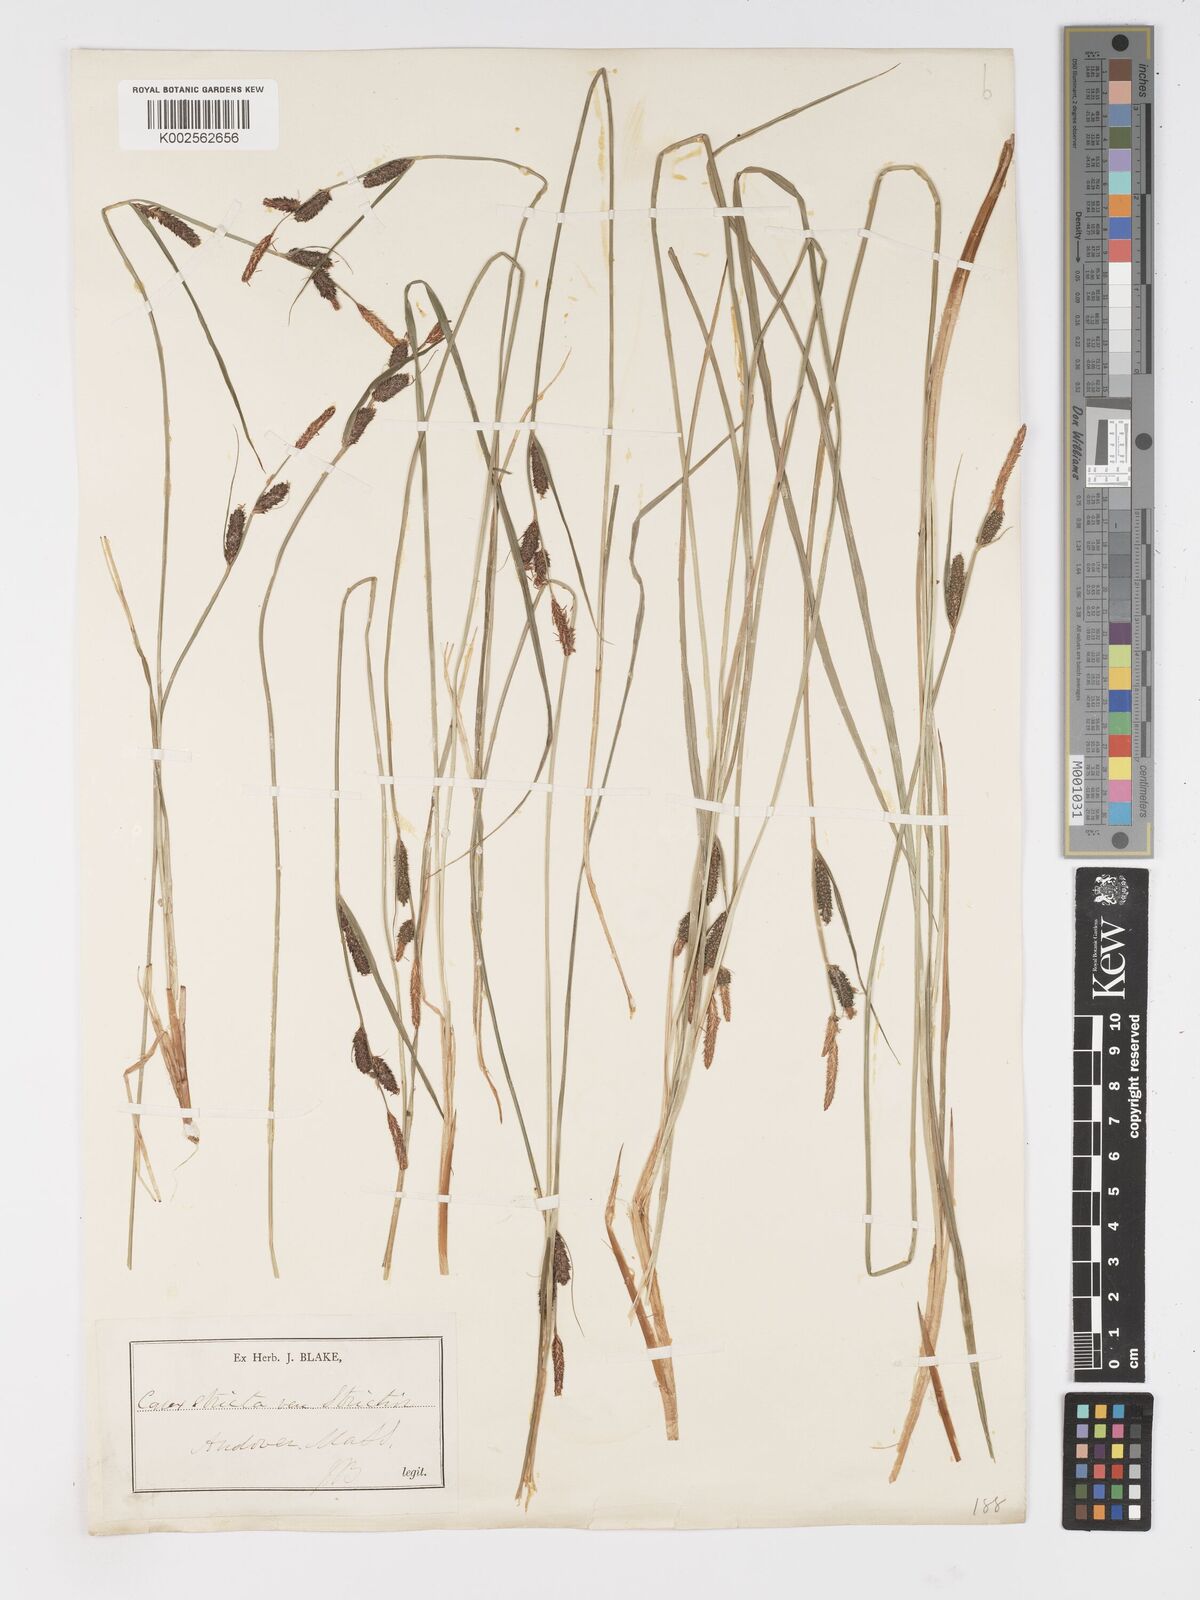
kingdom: Plantae
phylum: Tracheophyta
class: Liliopsida
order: Poales
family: Cyperaceae
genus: Carex
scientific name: Carex stricta
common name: Hummock sedge
